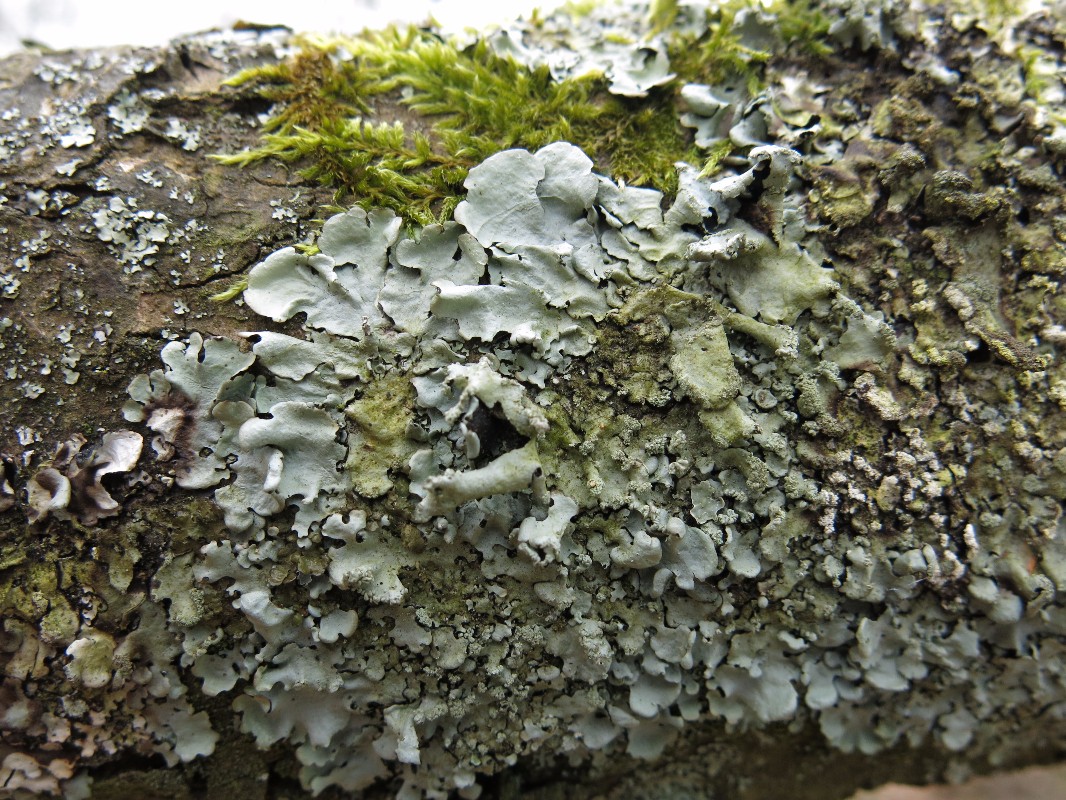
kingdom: Fungi
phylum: Ascomycota
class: Lecanoromycetes
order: Lecanorales
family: Parmeliaceae
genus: Hypotrachyna
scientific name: Hypotrachyna afrorevoluta
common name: kyst-skållav
